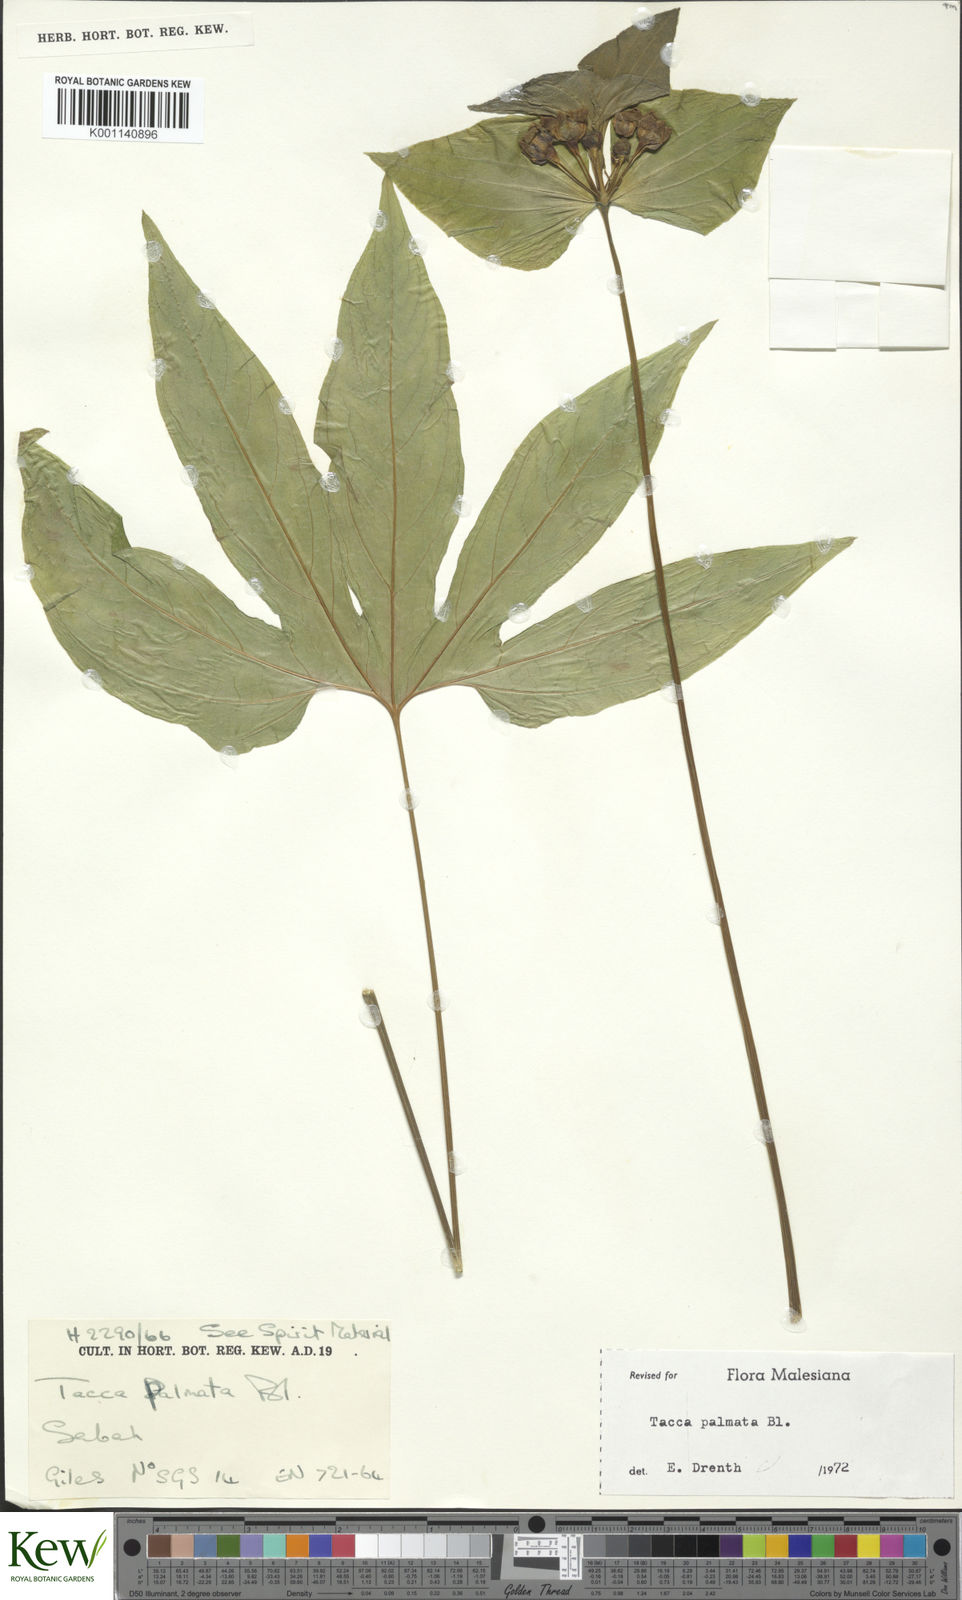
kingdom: Plantae
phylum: Tracheophyta
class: Liliopsida
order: Dioscoreales
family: Dioscoreaceae
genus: Tacca
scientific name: Tacca palmata
